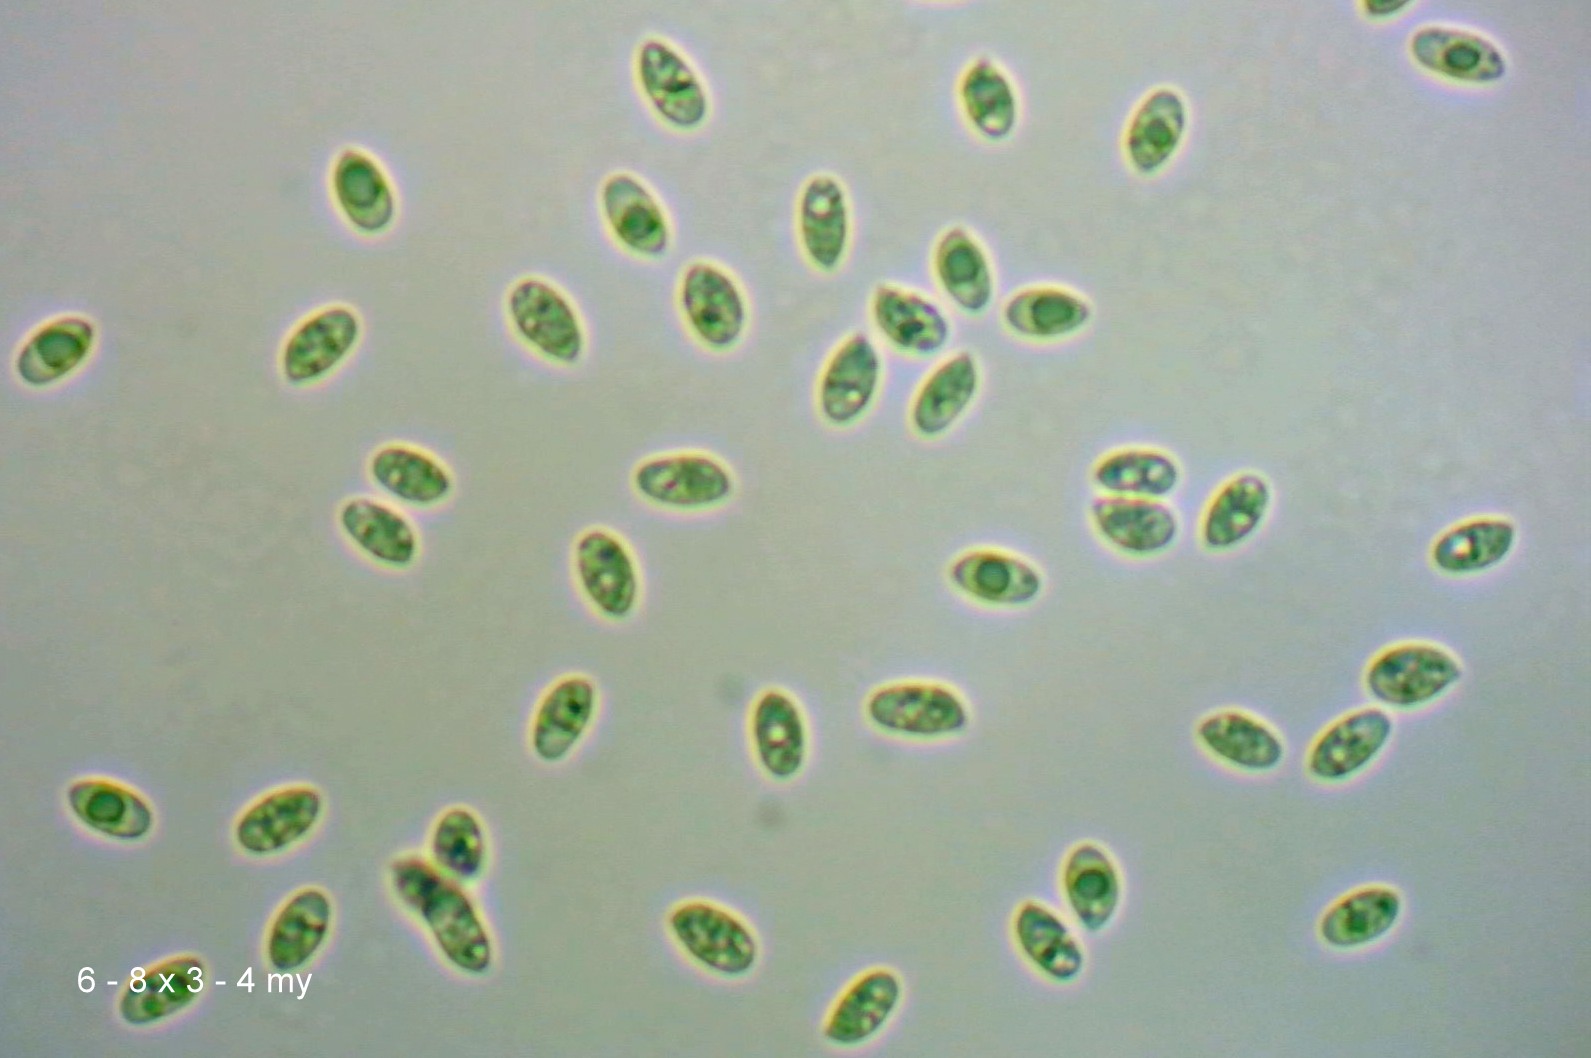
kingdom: Fungi
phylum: Basidiomycota
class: Agaricomycetes
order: Agaricales
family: Mycenaceae
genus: Atheniella
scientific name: Atheniella flavoalba
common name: gulhvid huesvamp
